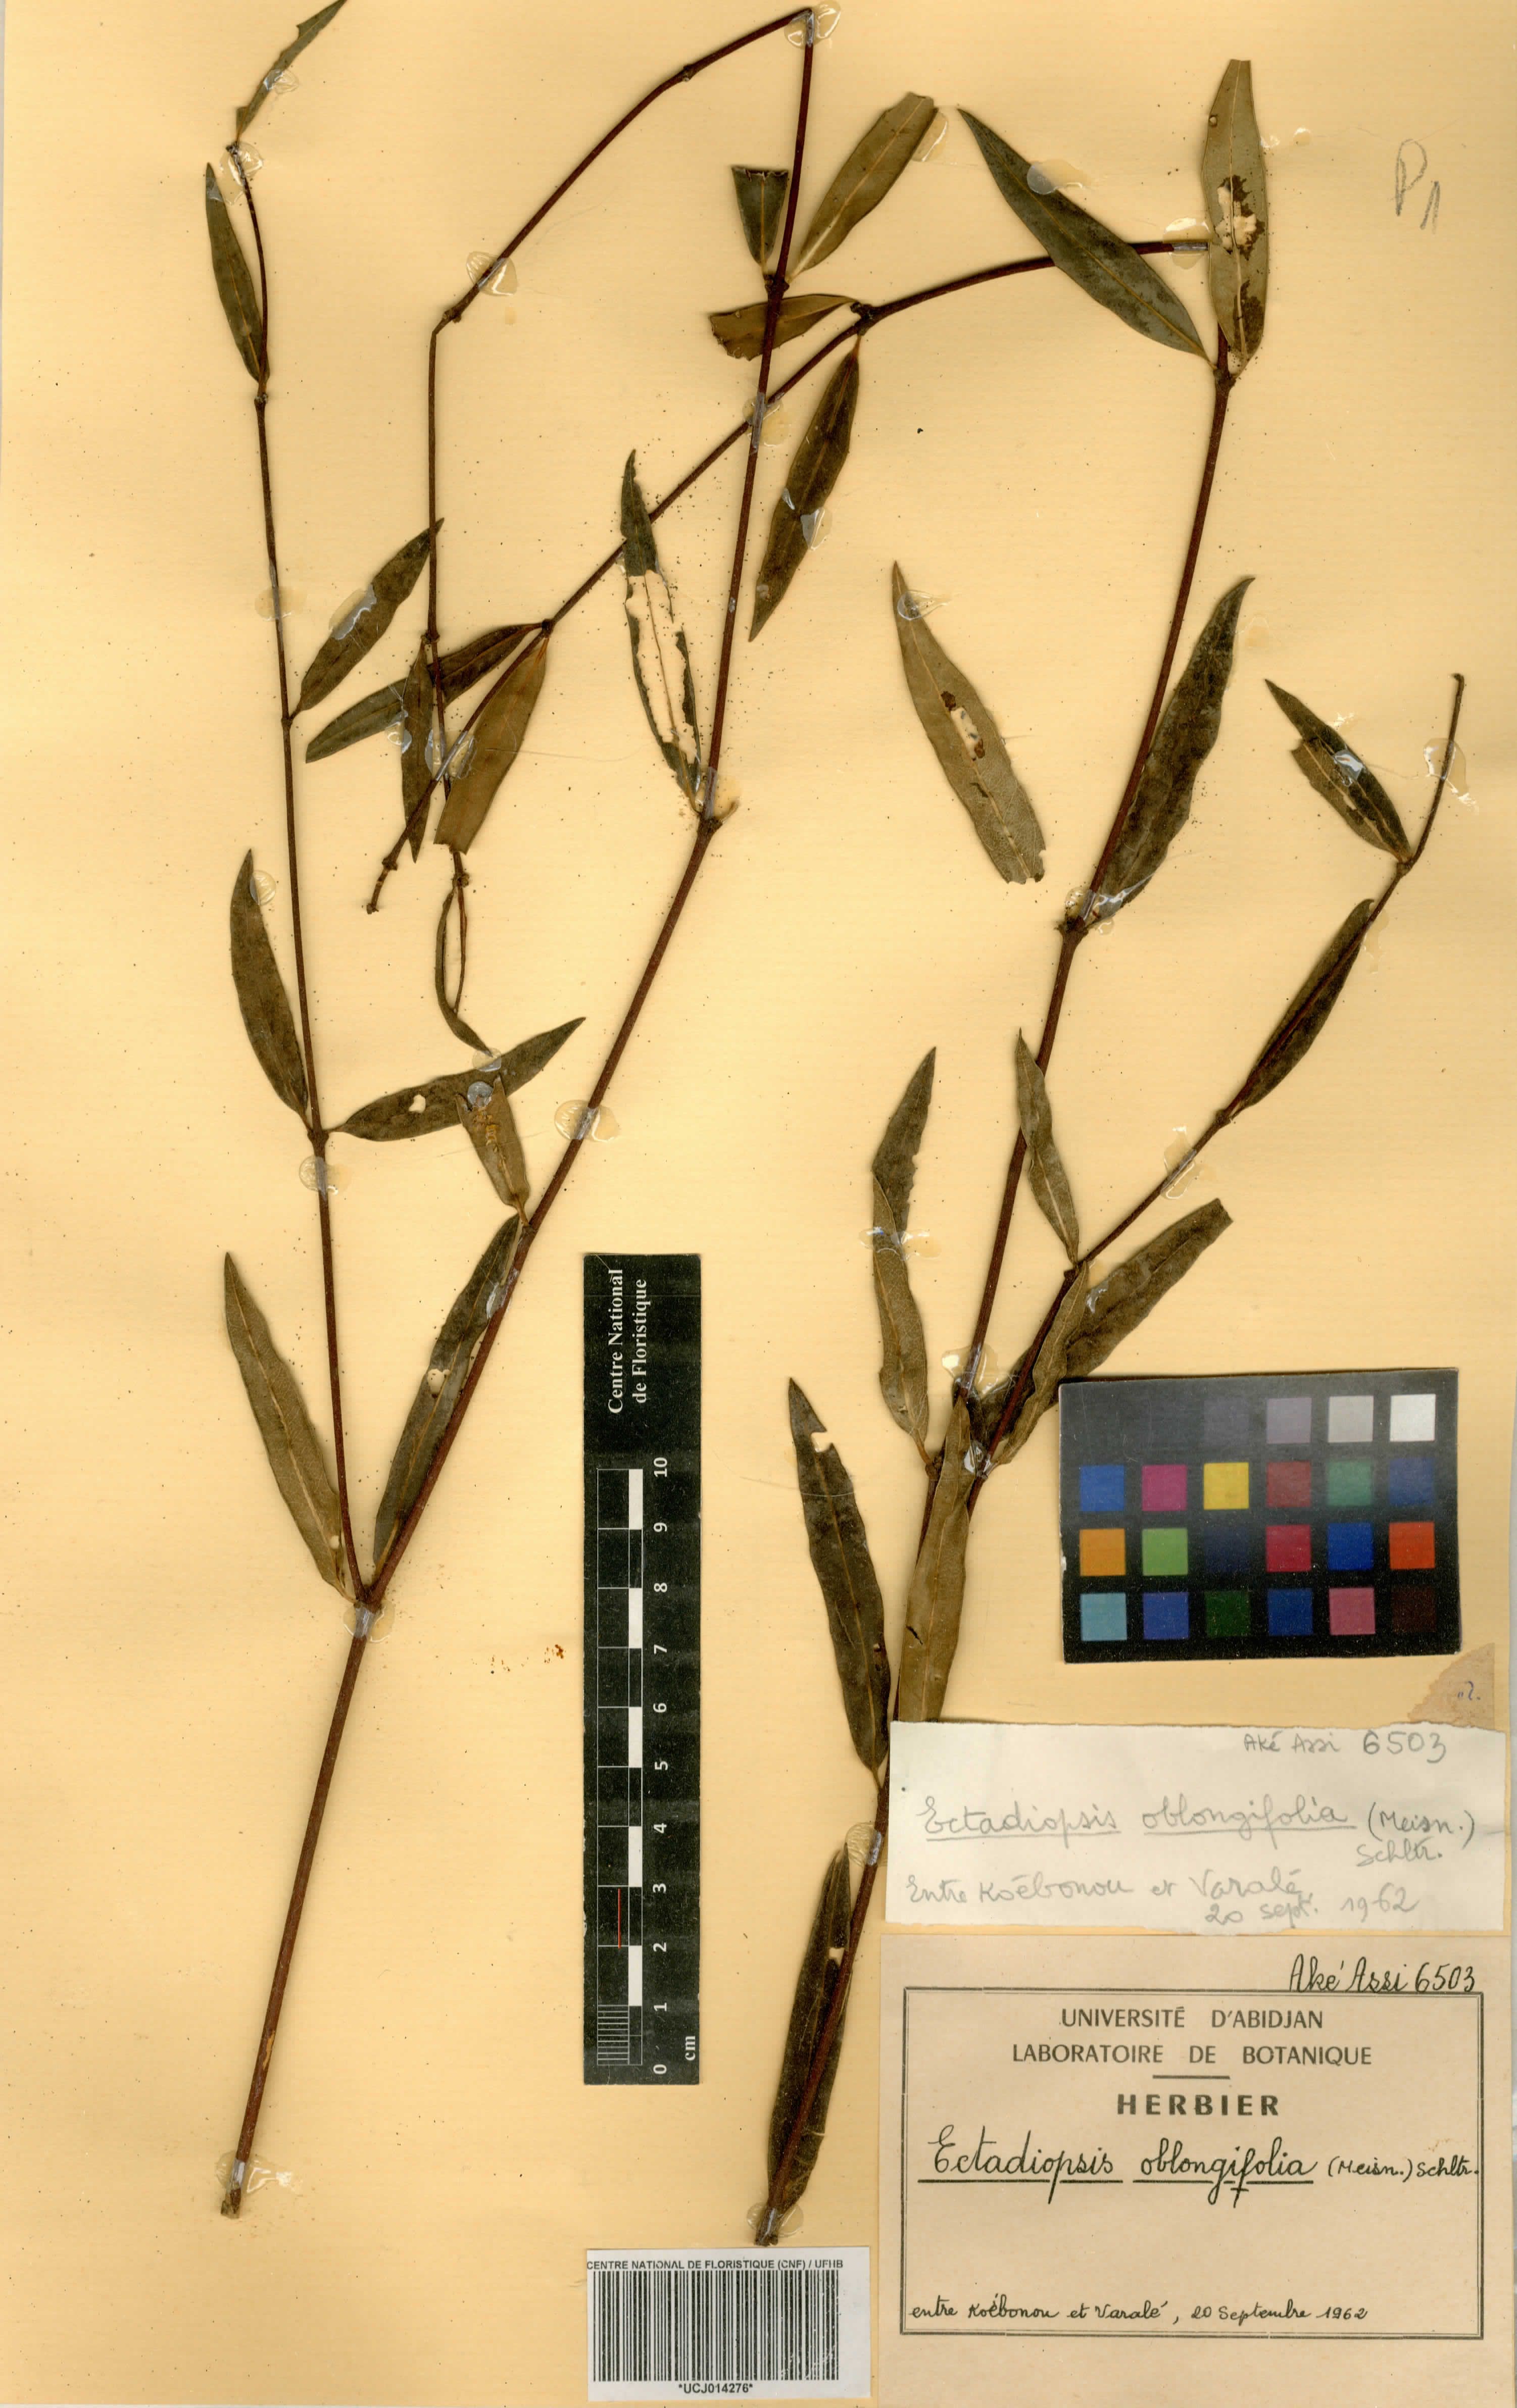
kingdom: Plantae
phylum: Tracheophyta
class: Magnoliopsida
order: Gentianales
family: Apocynaceae
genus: Cryptolepis
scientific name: Cryptolepis oblongifolia
